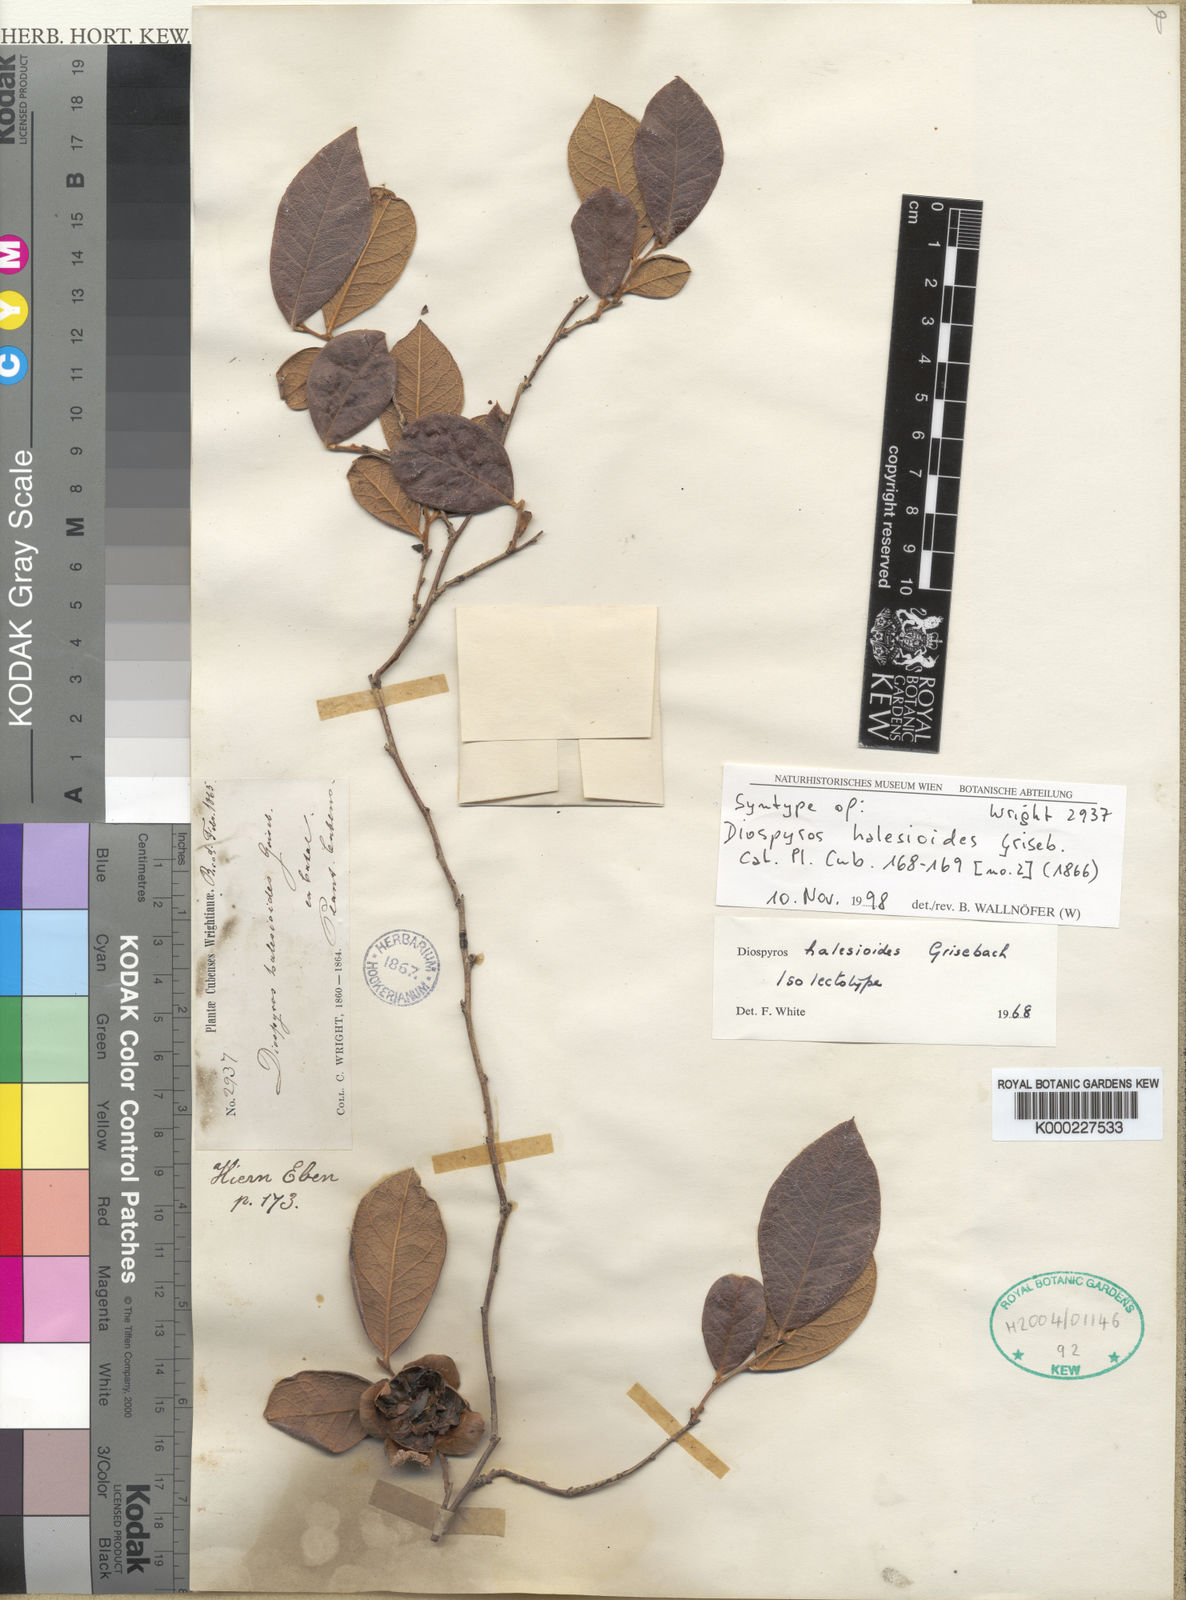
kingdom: Plantae
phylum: Tracheophyta
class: Magnoliopsida
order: Ericales
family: Ebenaceae
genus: Diospyros
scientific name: Diospyros halesioides
